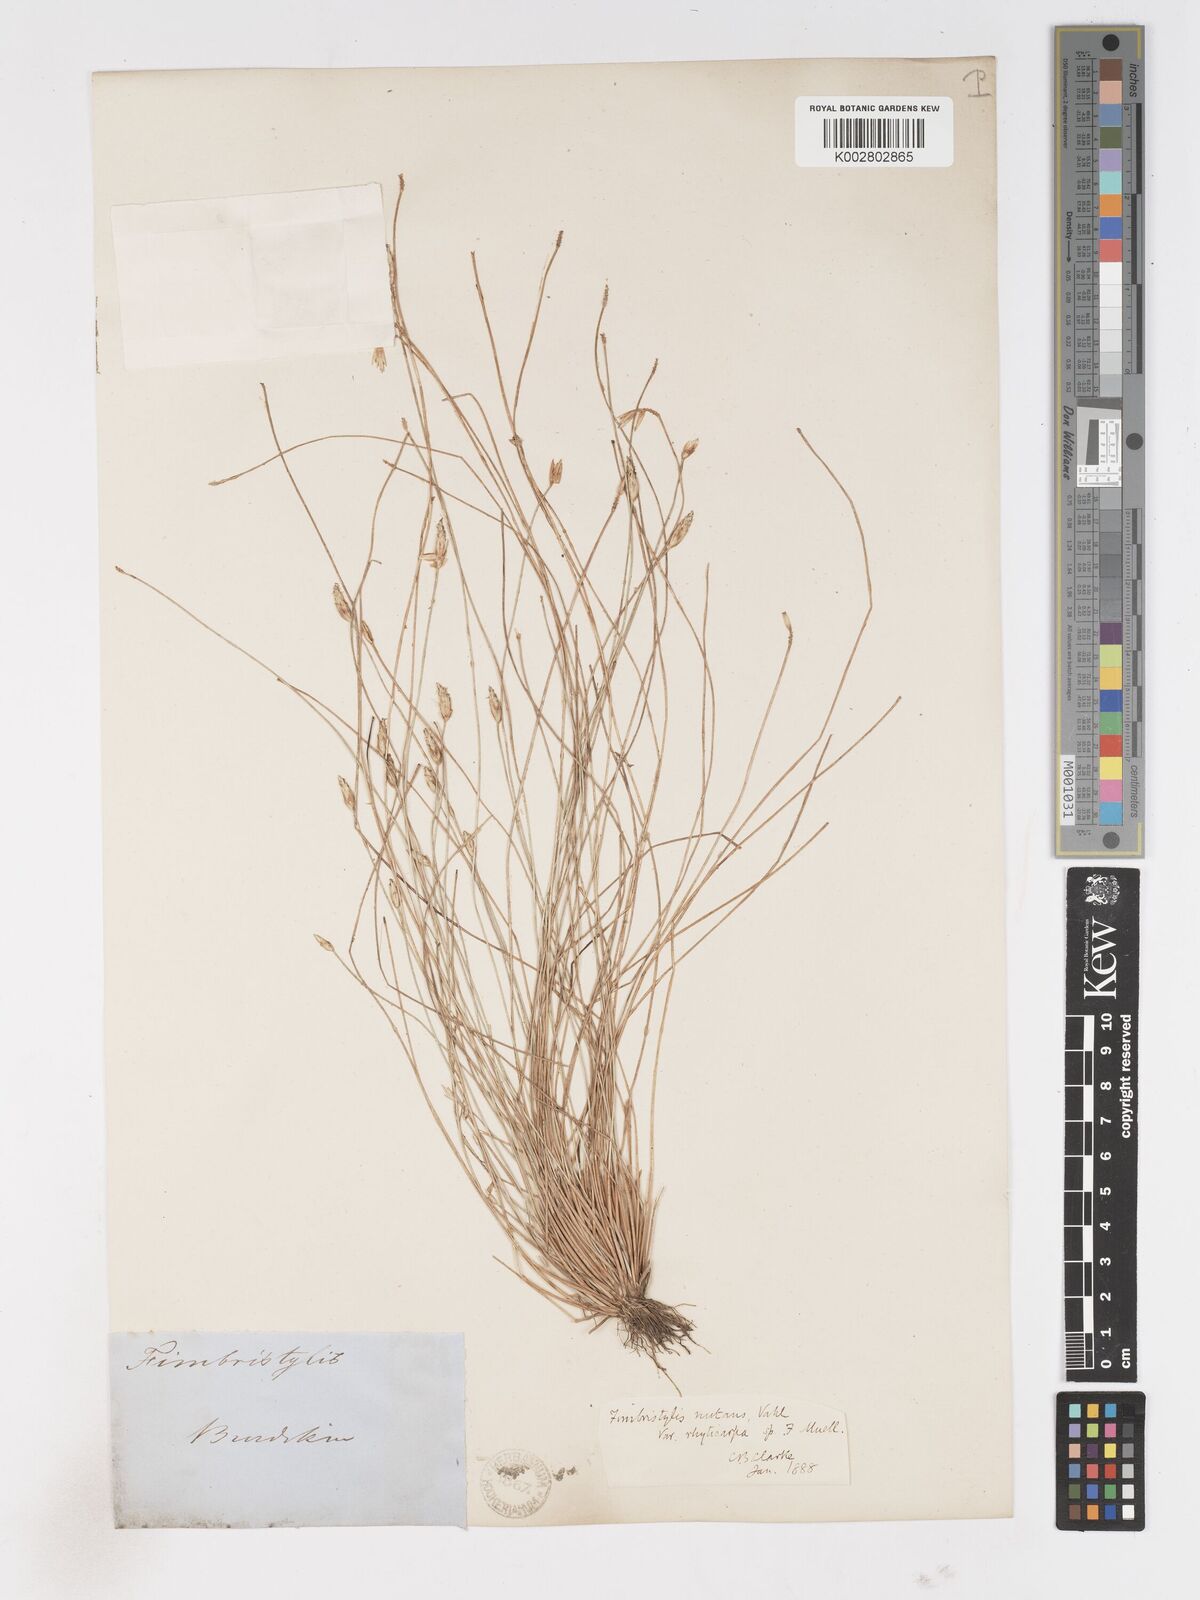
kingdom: Plantae
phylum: Tracheophyta
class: Liliopsida
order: Poales
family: Cyperaceae
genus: Fimbristylis
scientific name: Fimbristylis rhyticarya
